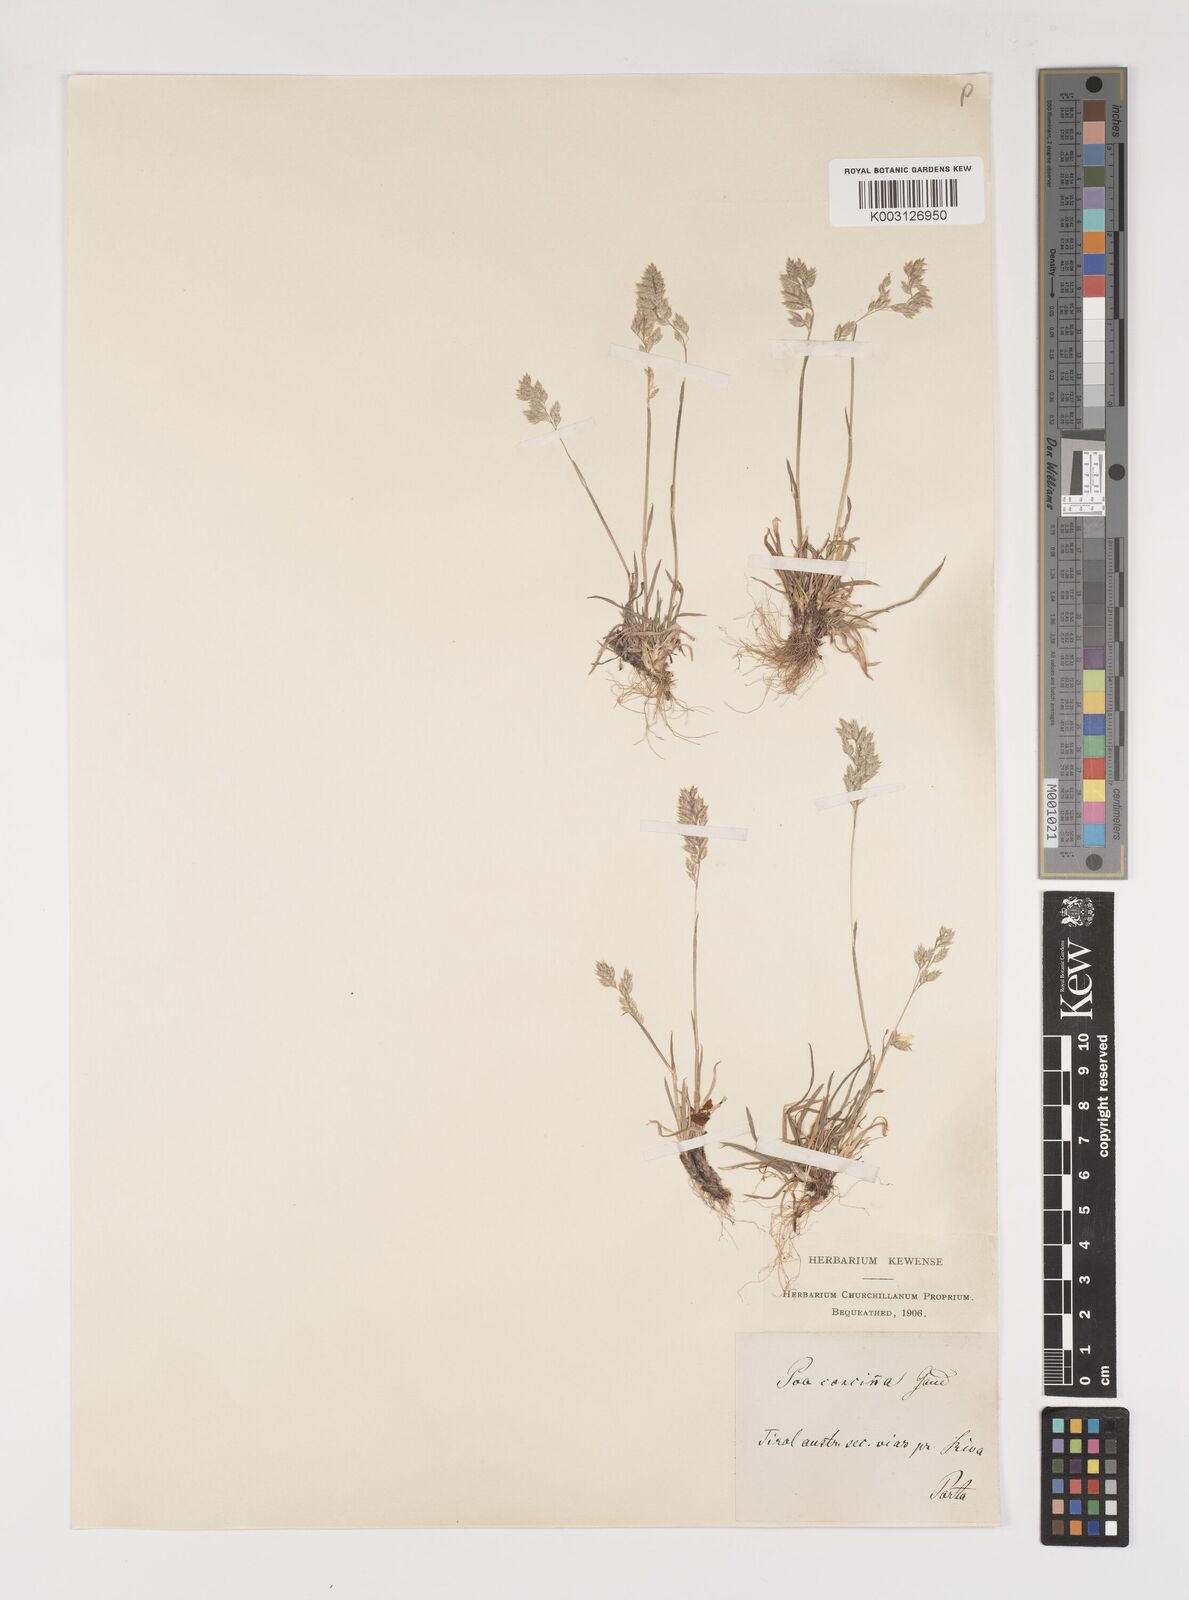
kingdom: Plantae
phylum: Tracheophyta
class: Liliopsida
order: Poales
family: Poaceae
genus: Poa
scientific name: Poa perconcinna
